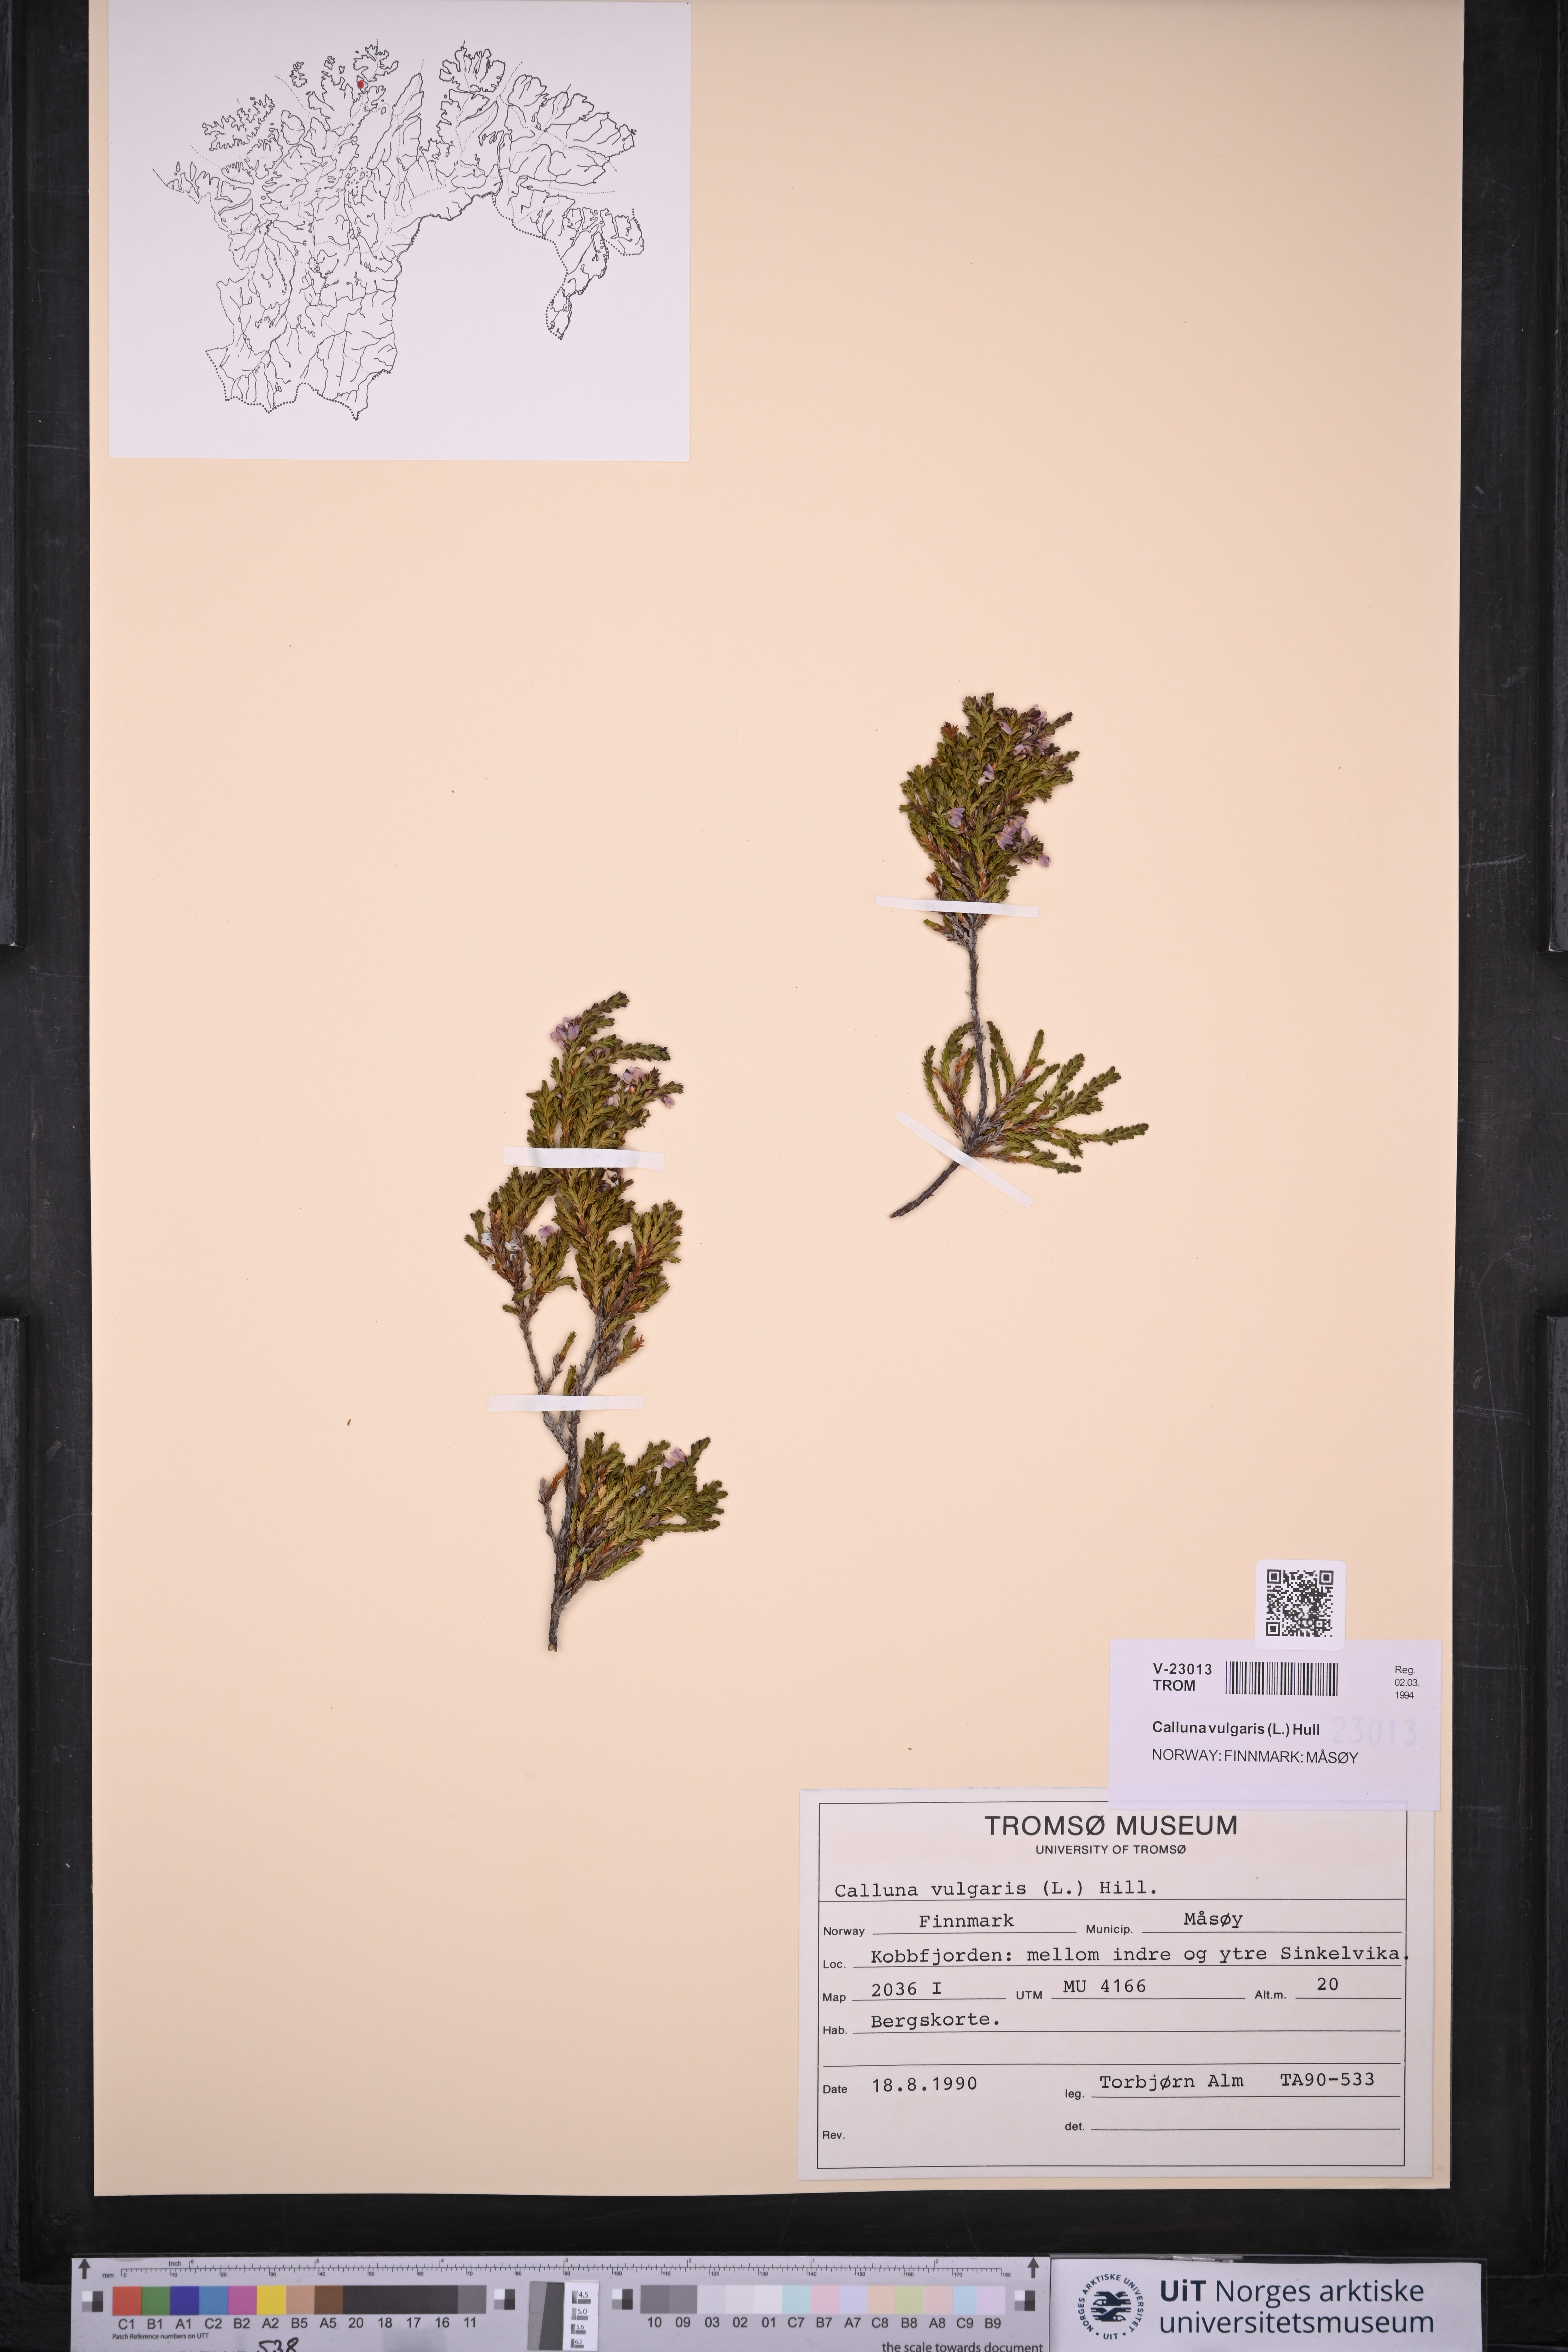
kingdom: Plantae
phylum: Tracheophyta
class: Magnoliopsida
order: Ericales
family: Ericaceae
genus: Calluna
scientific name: Calluna vulgaris
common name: Heather
